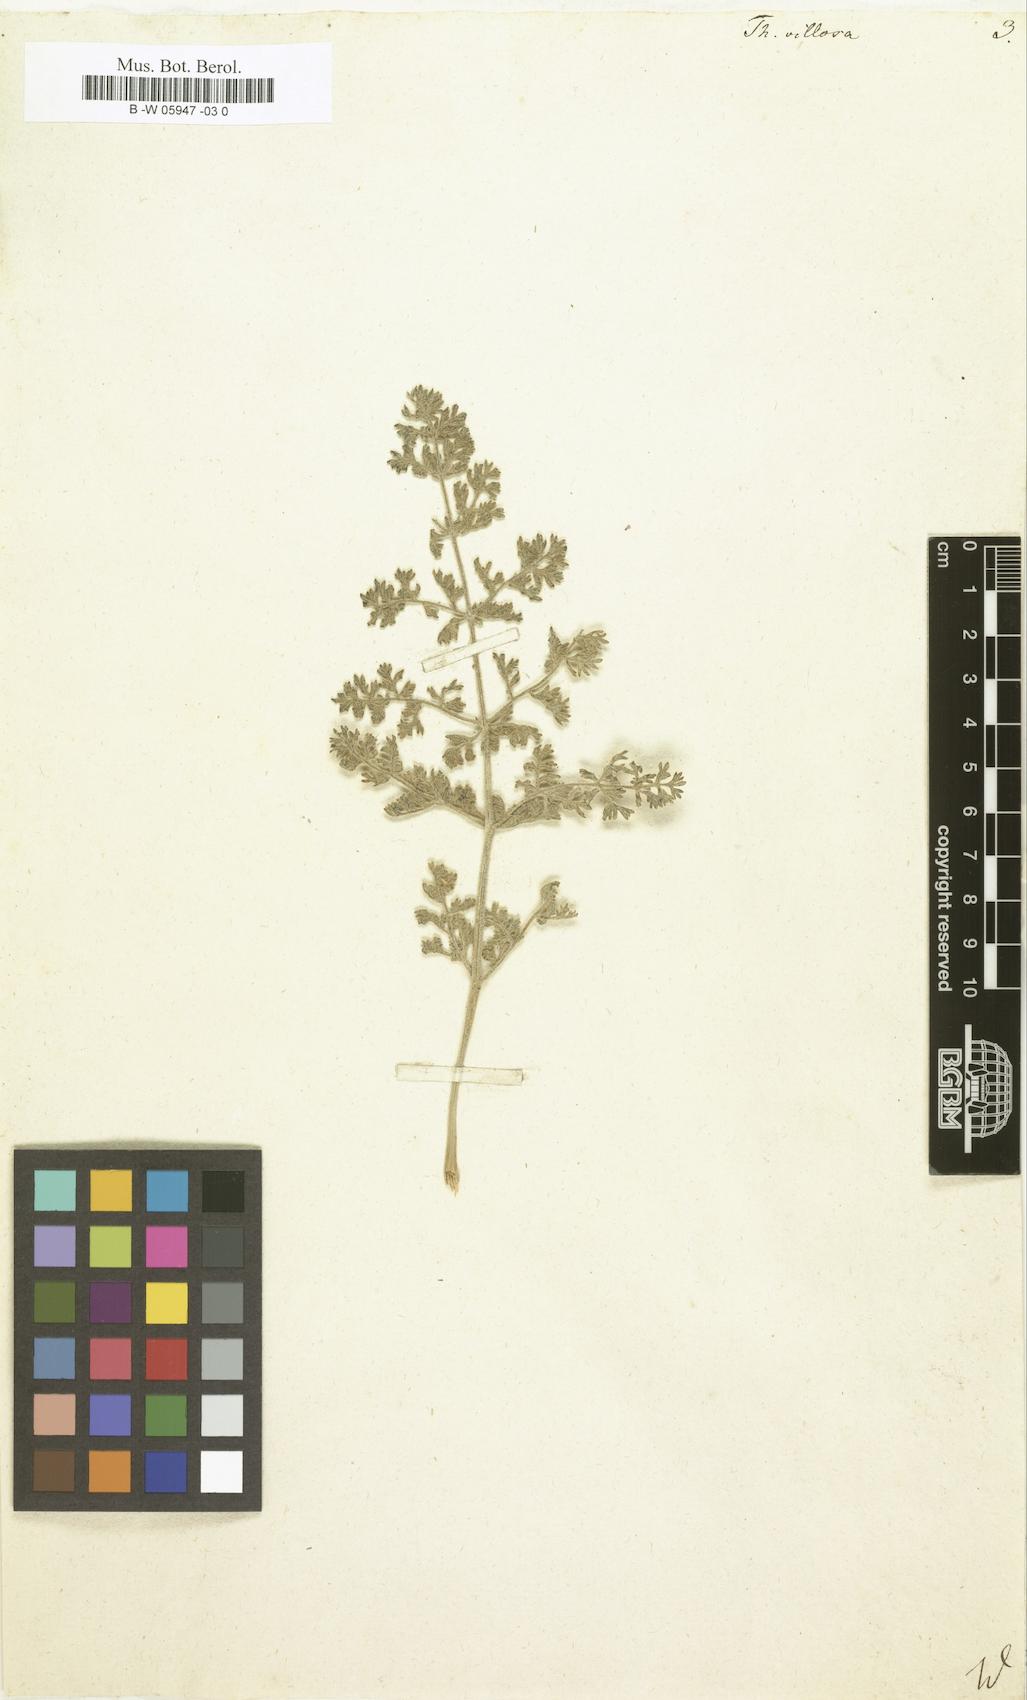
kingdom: Plantae
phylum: Tracheophyta
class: Magnoliopsida
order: Apiales
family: Apiaceae
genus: Thapsia
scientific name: Thapsia villosa
